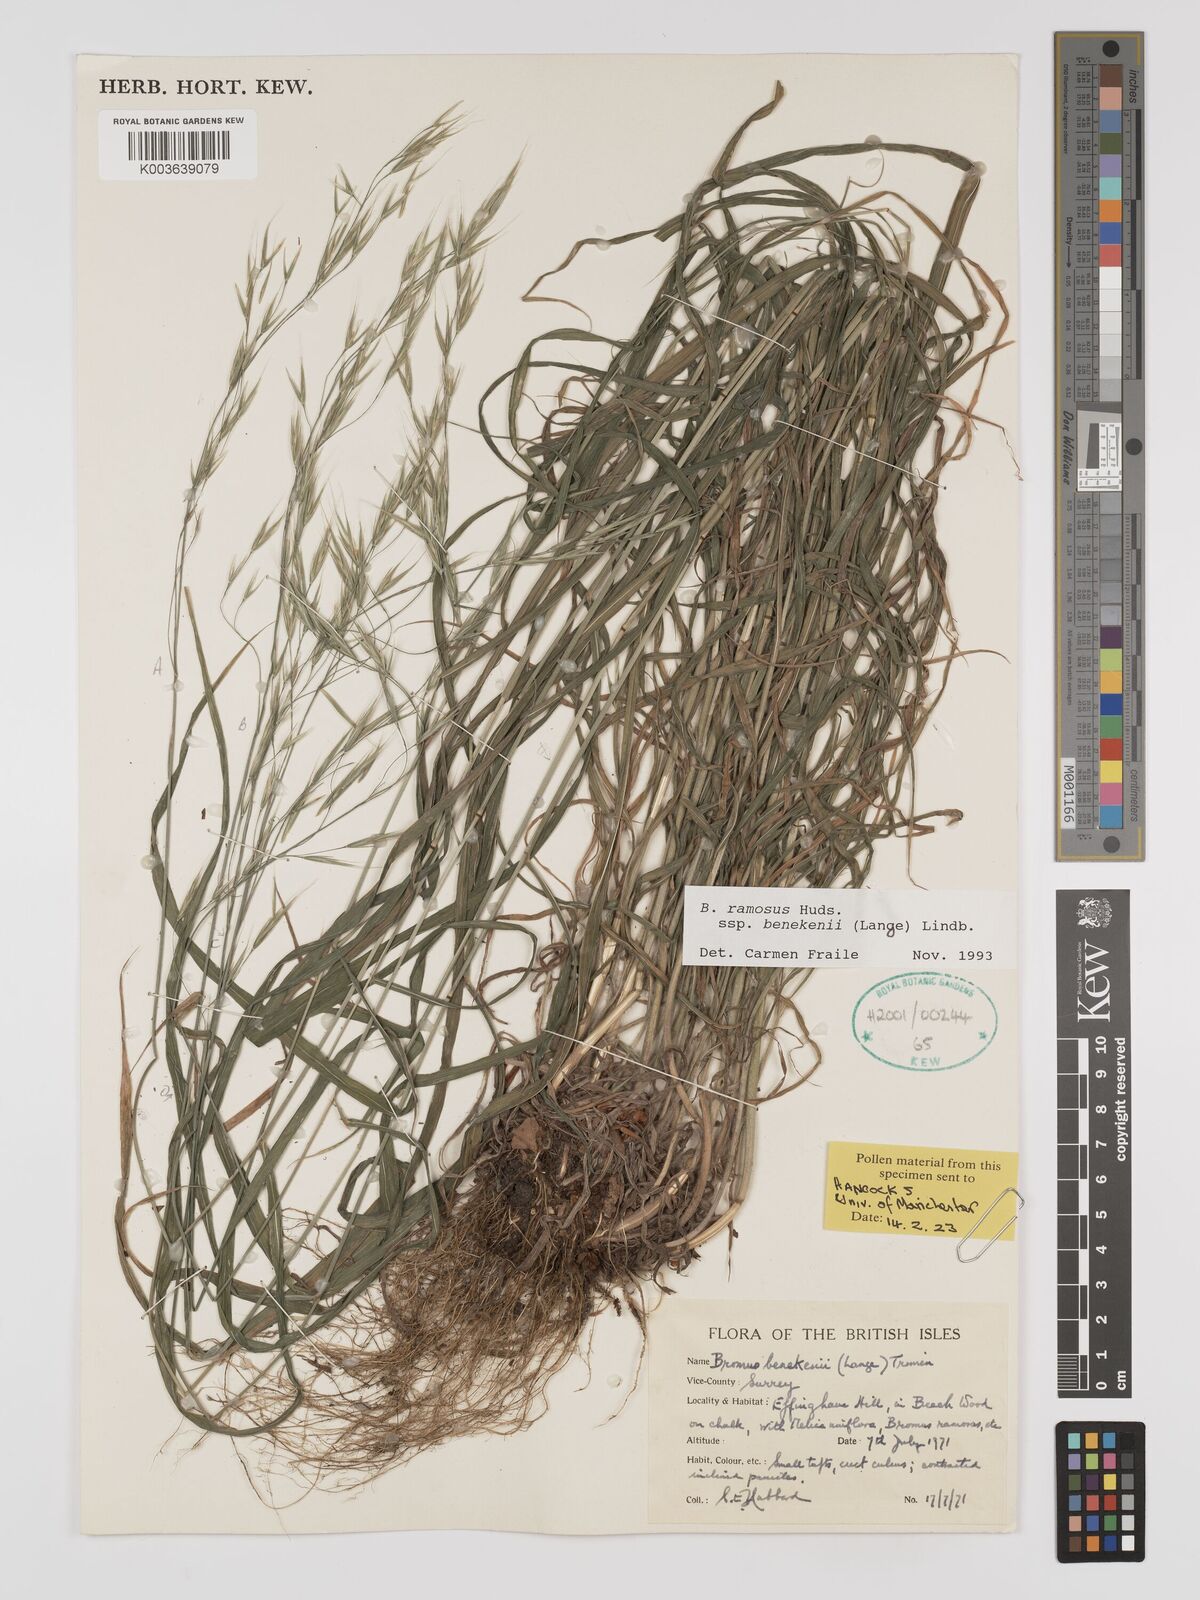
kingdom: Plantae
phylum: Tracheophyta
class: Liliopsida
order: Poales
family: Poaceae
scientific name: Poaceae
